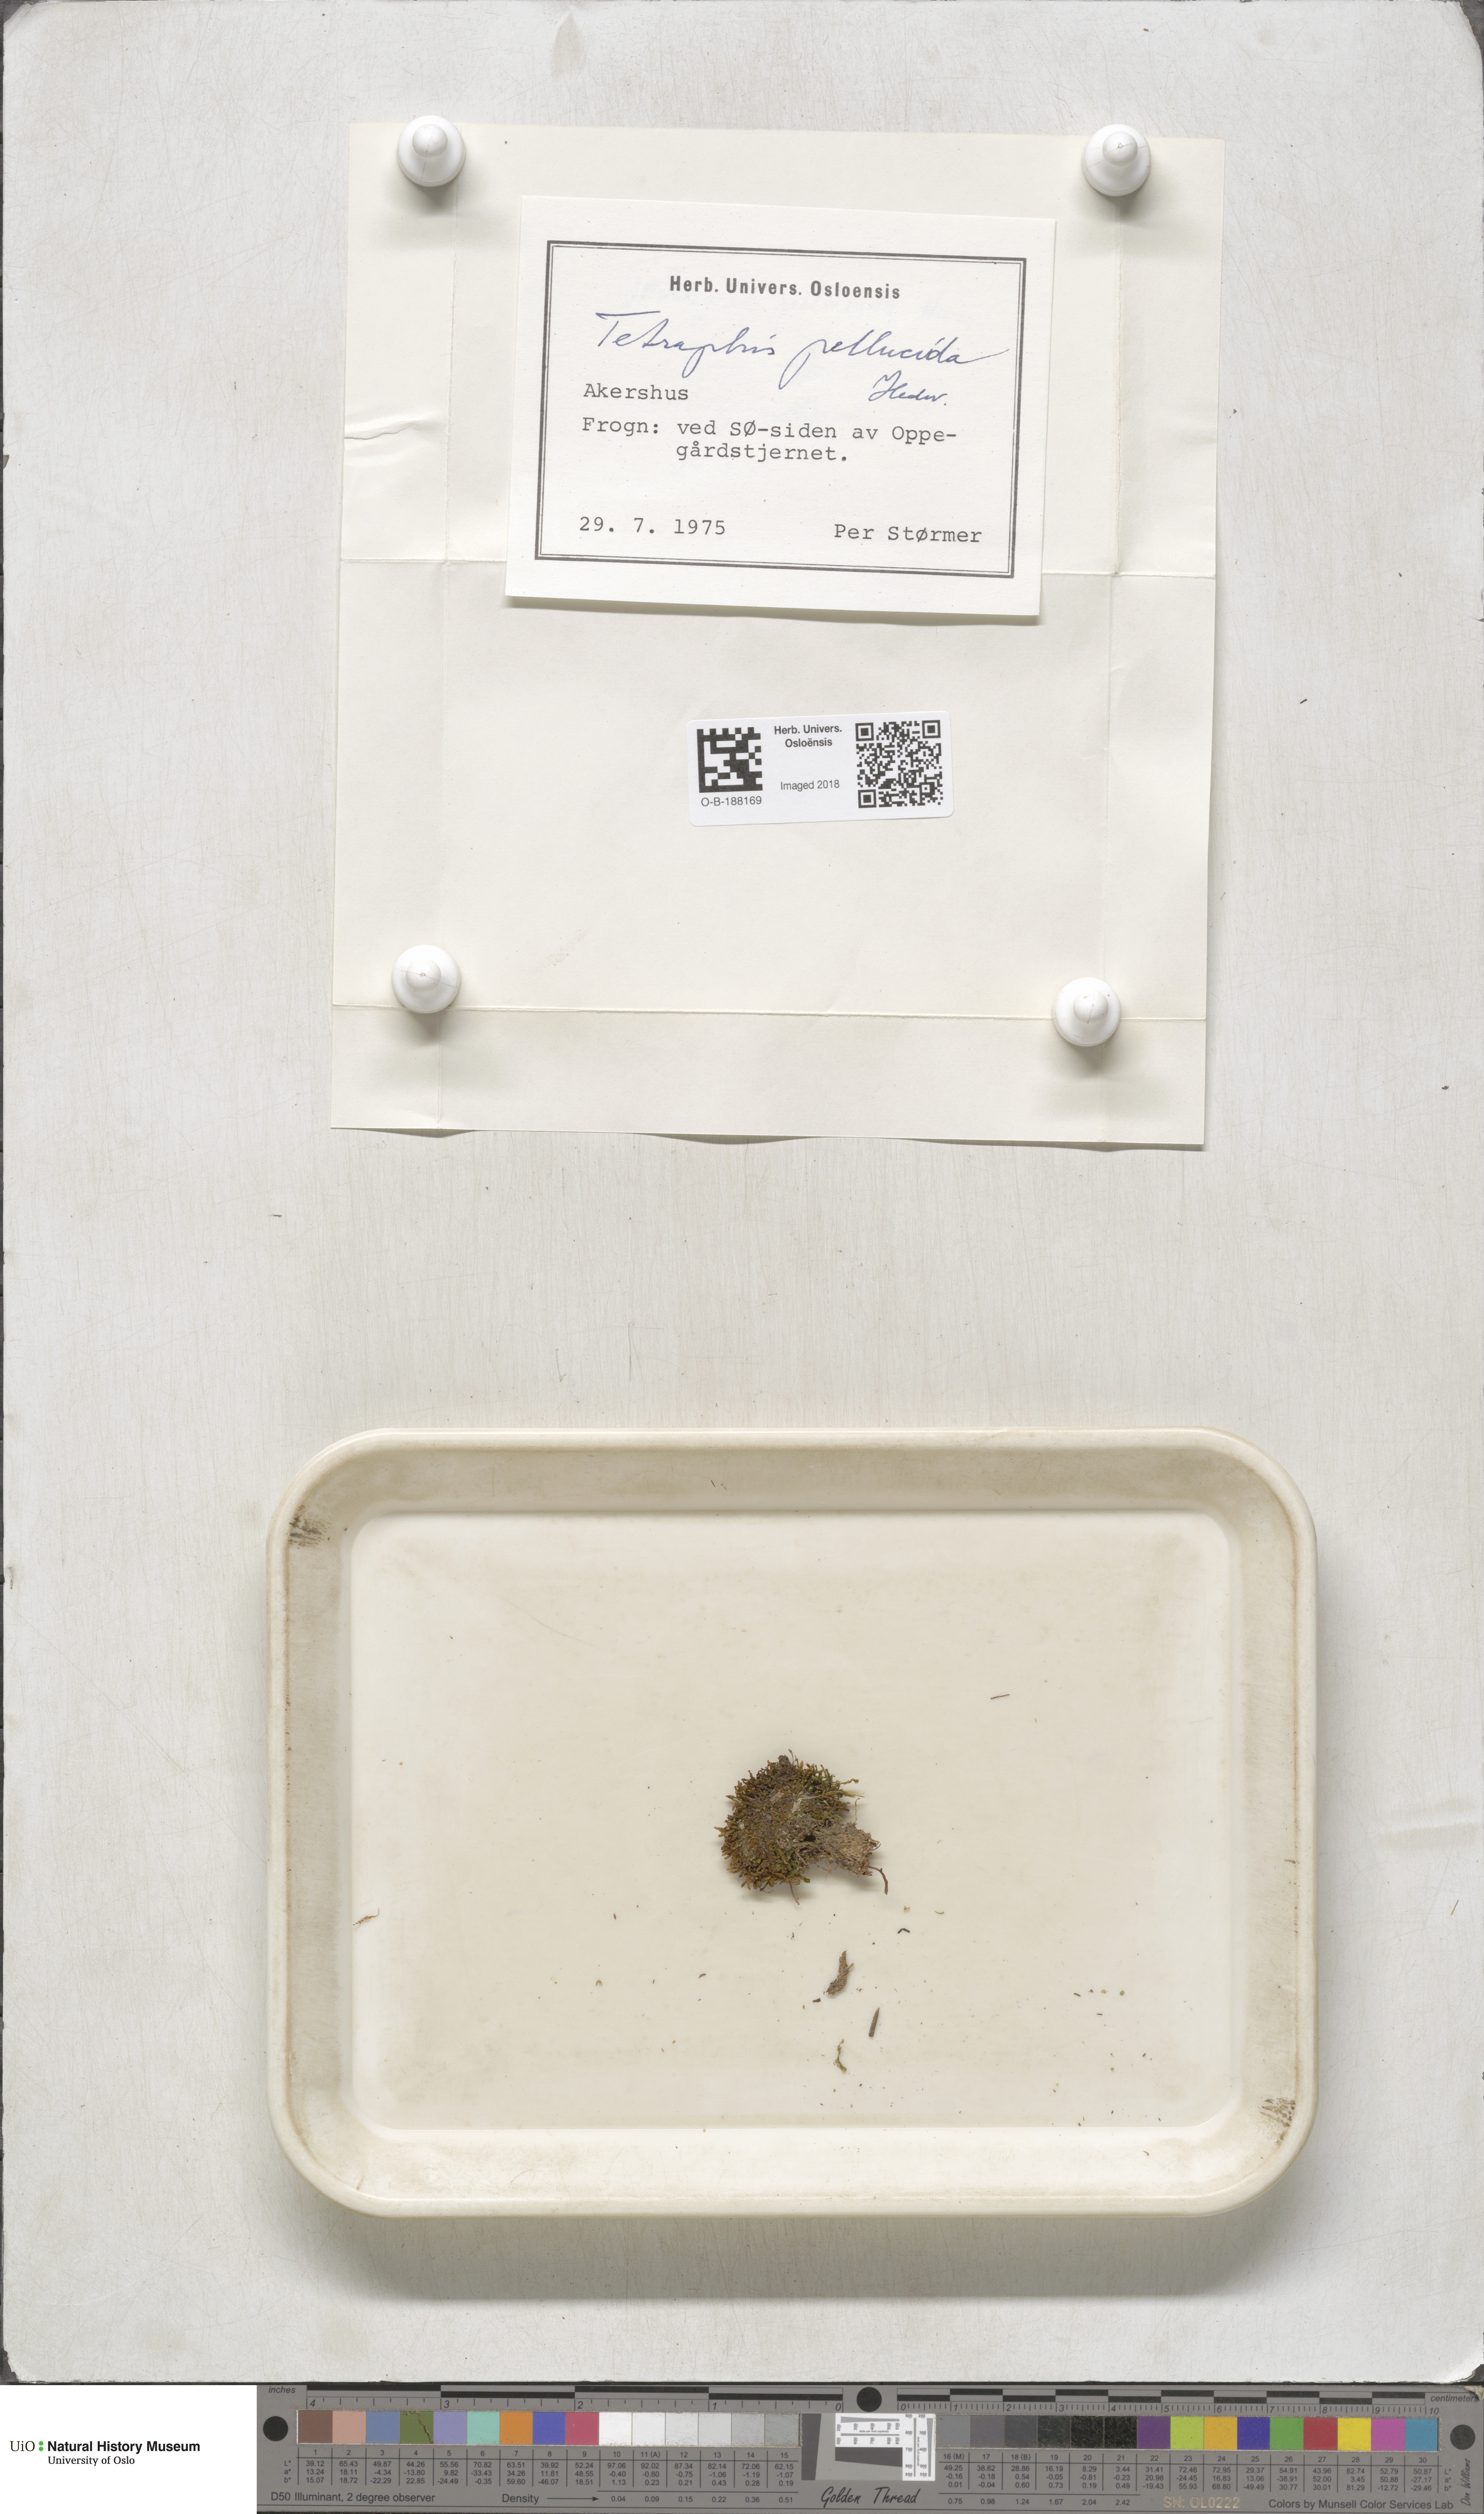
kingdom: Plantae
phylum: Bryophyta
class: Polytrichopsida
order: Tetraphidales
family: Tetraphidaceae
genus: Tetraphis
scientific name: Tetraphis pellucida
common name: Common four-toothed moss
